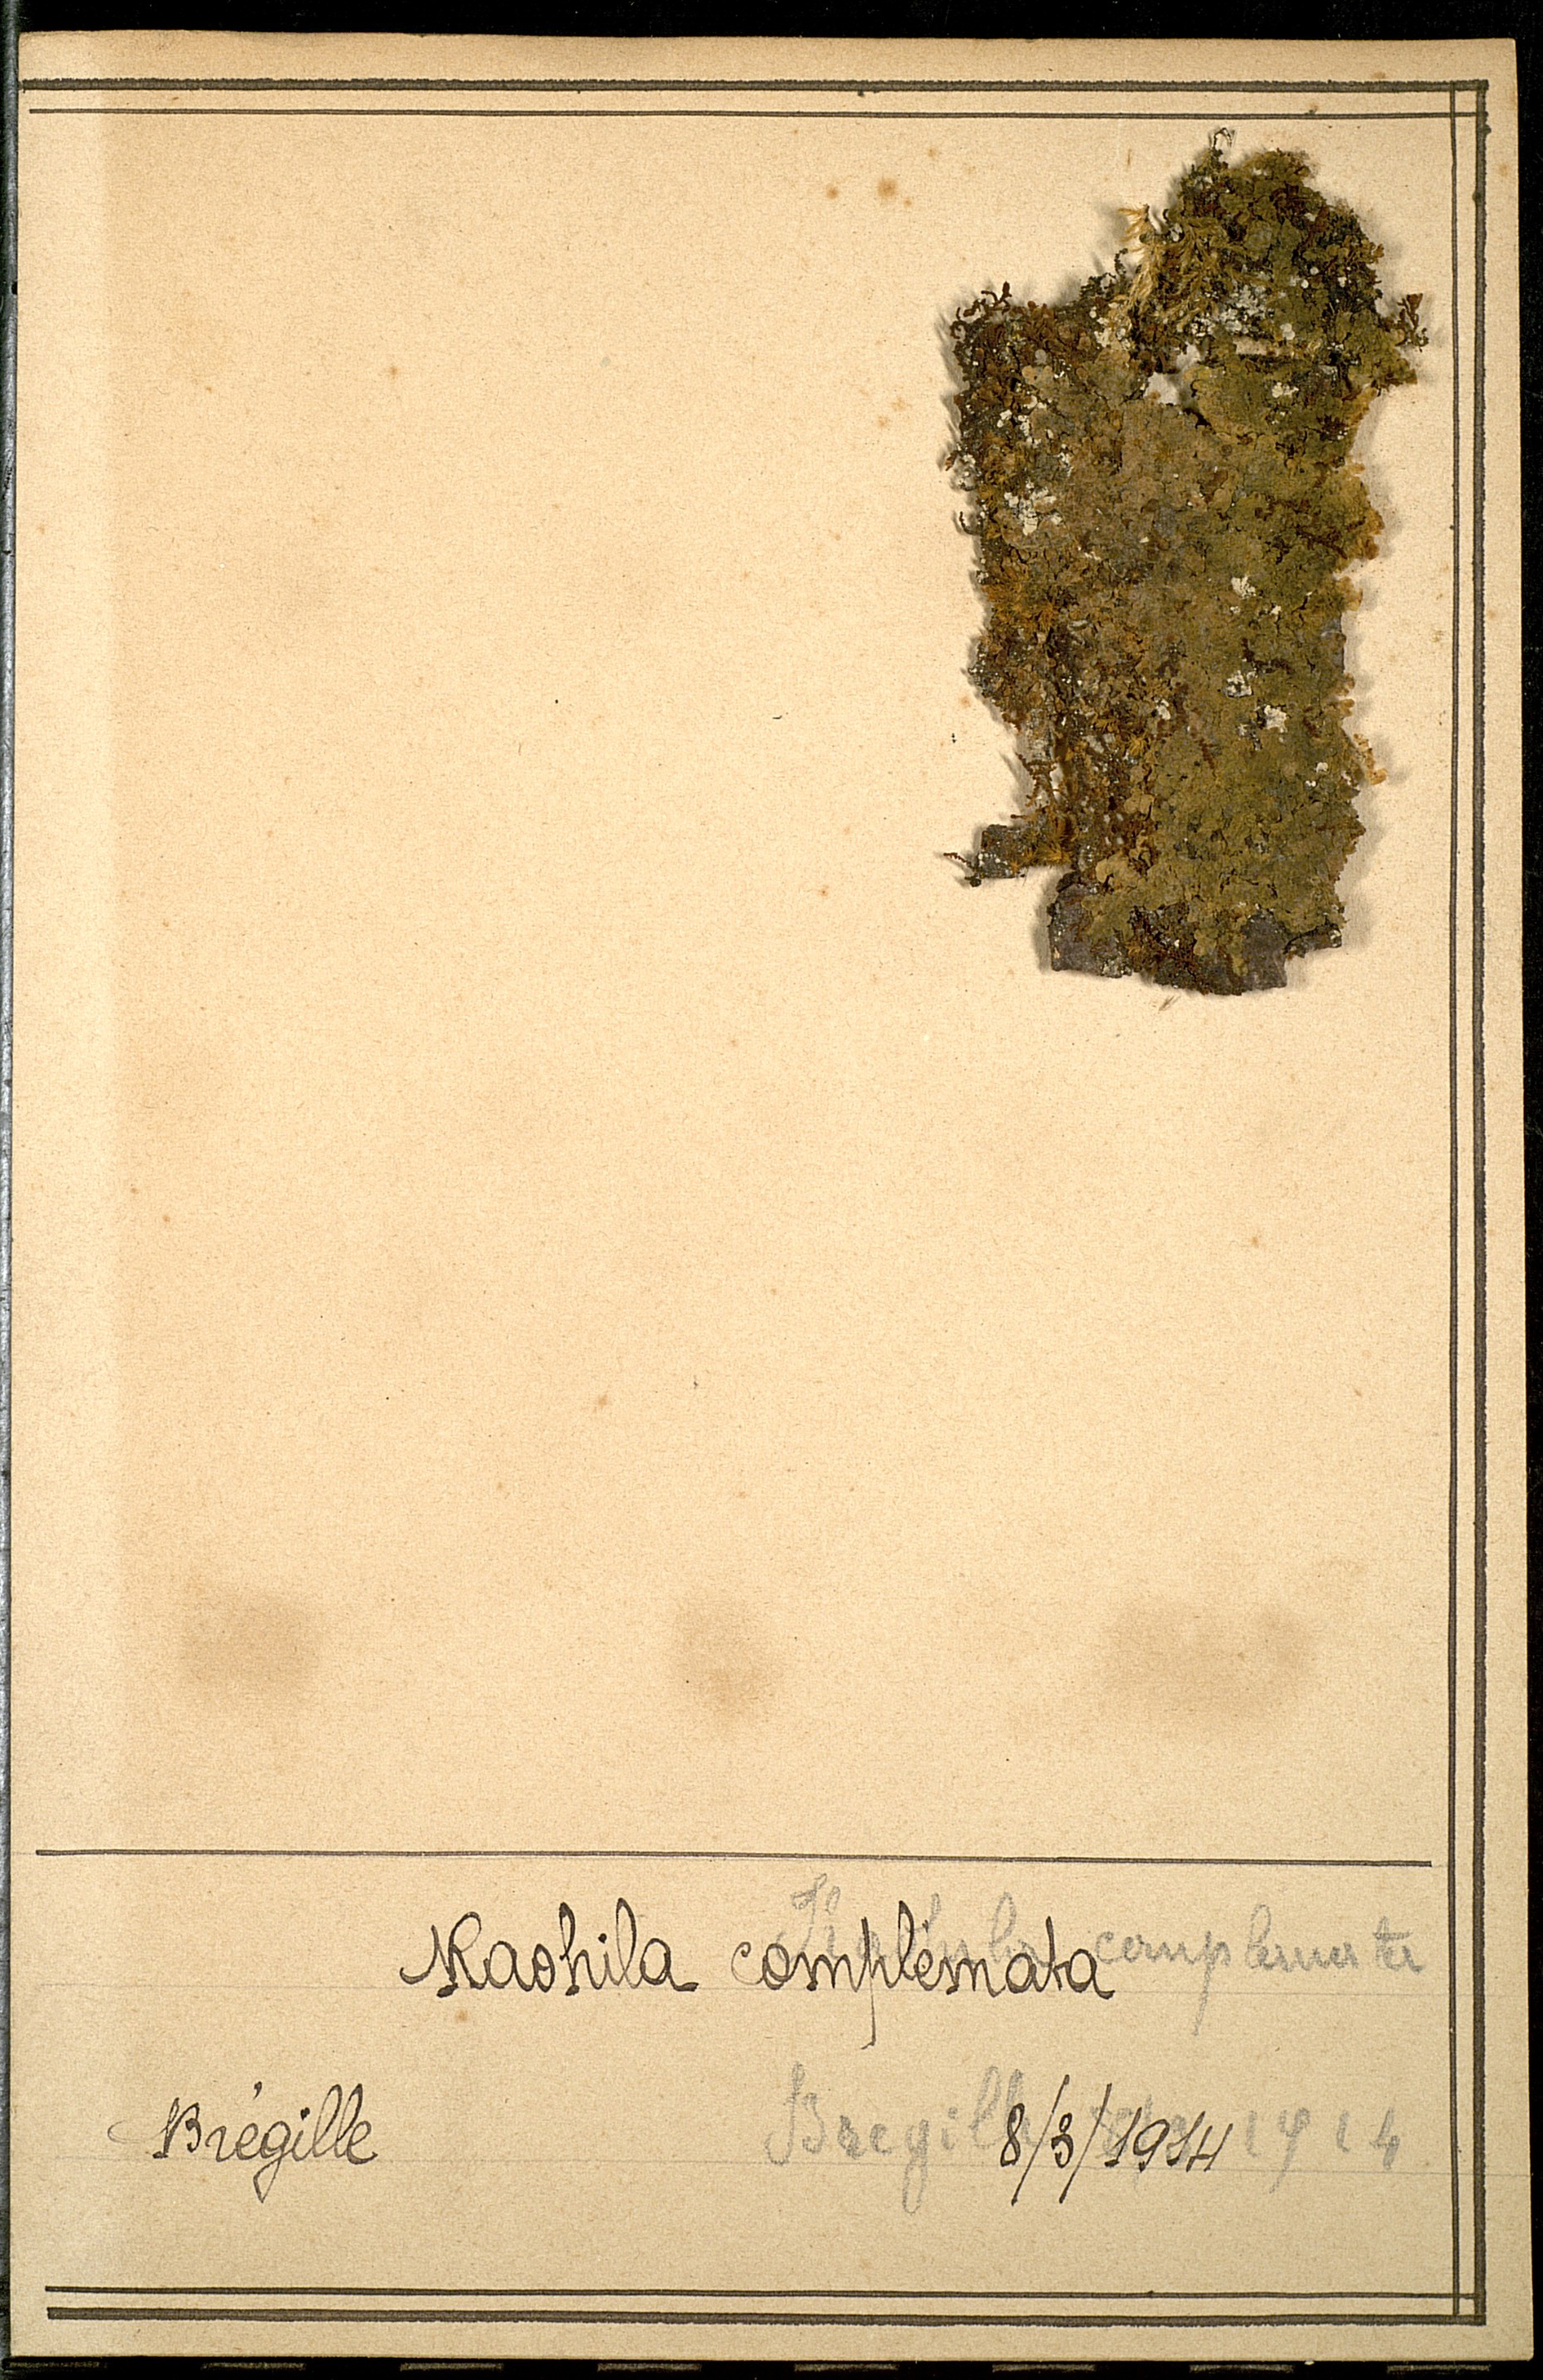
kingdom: Plantae
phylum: Marchantiophyta
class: Jungermanniopsida
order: Porellales
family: Radulaceae
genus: Radula
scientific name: Radula complanata
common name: Flat-leaved scalewort
